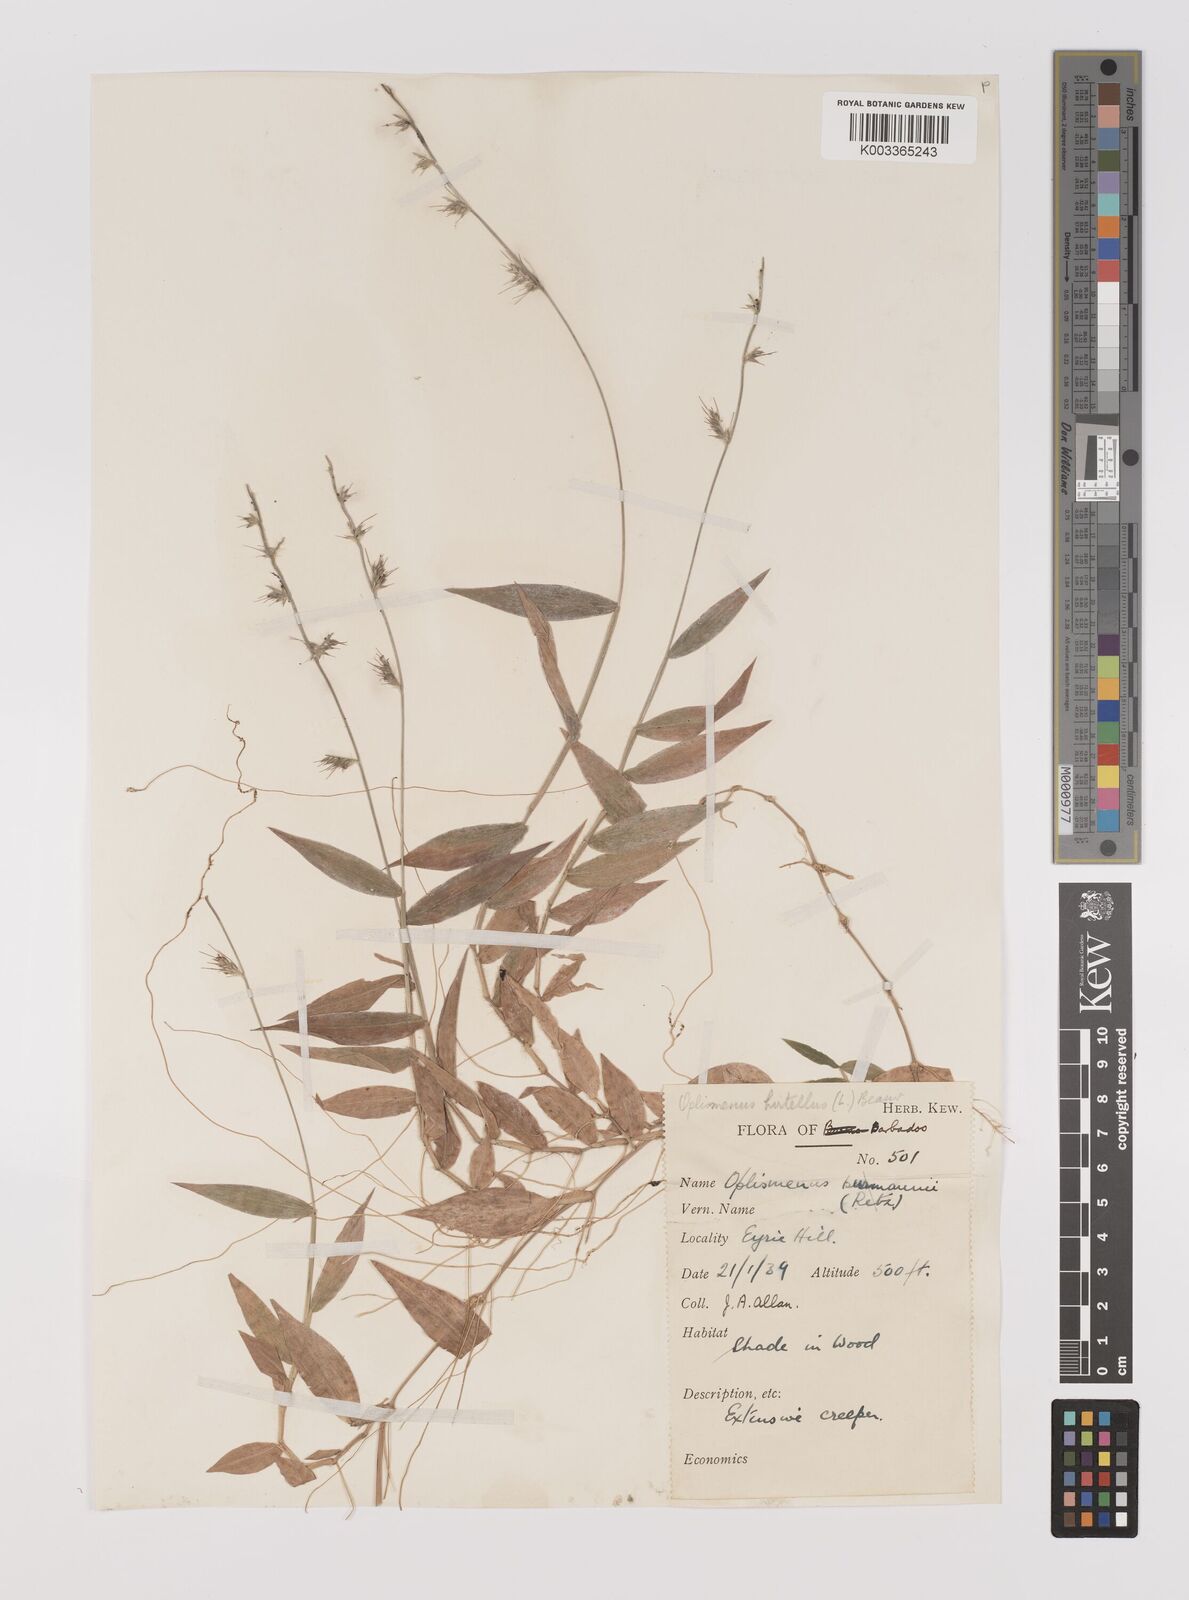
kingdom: Plantae
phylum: Tracheophyta
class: Liliopsida
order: Poales
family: Poaceae
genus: Oplismenus
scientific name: Oplismenus hirtellus
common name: Basketgrass
